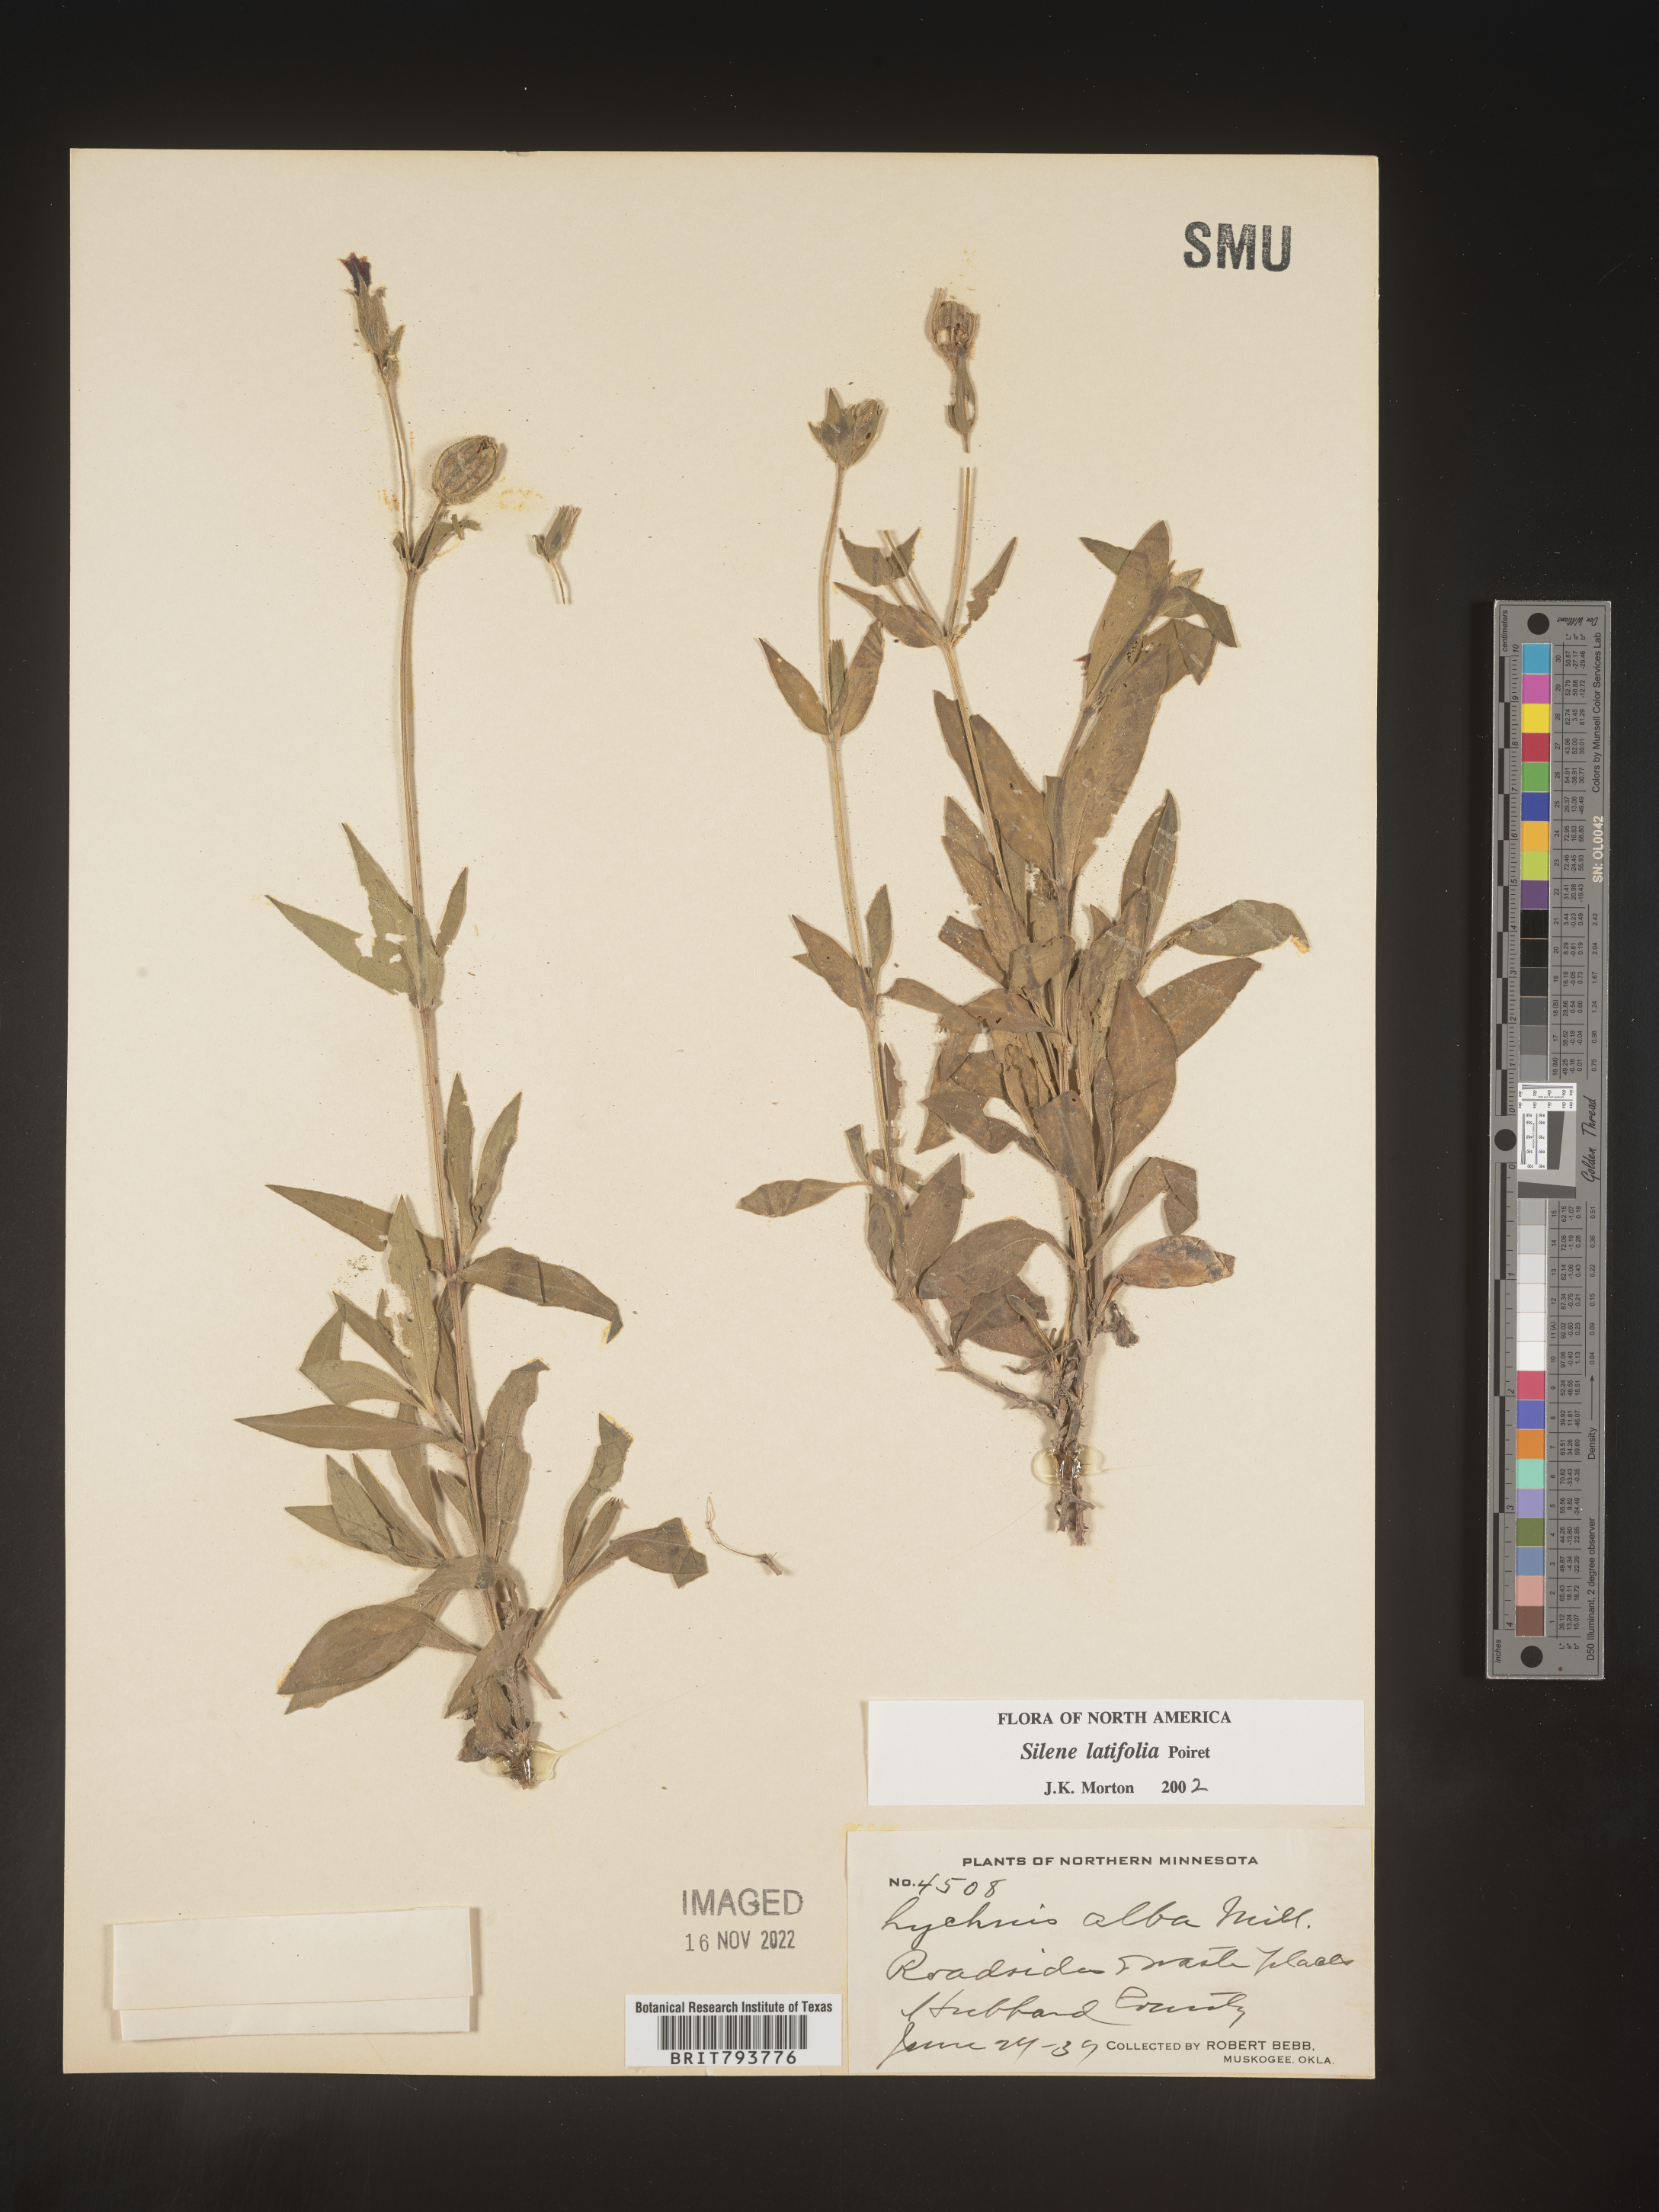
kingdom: Plantae
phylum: Tracheophyta
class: Magnoliopsida
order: Caryophyllales
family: Caryophyllaceae
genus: Silene
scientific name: Silene latifolia
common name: White campion
